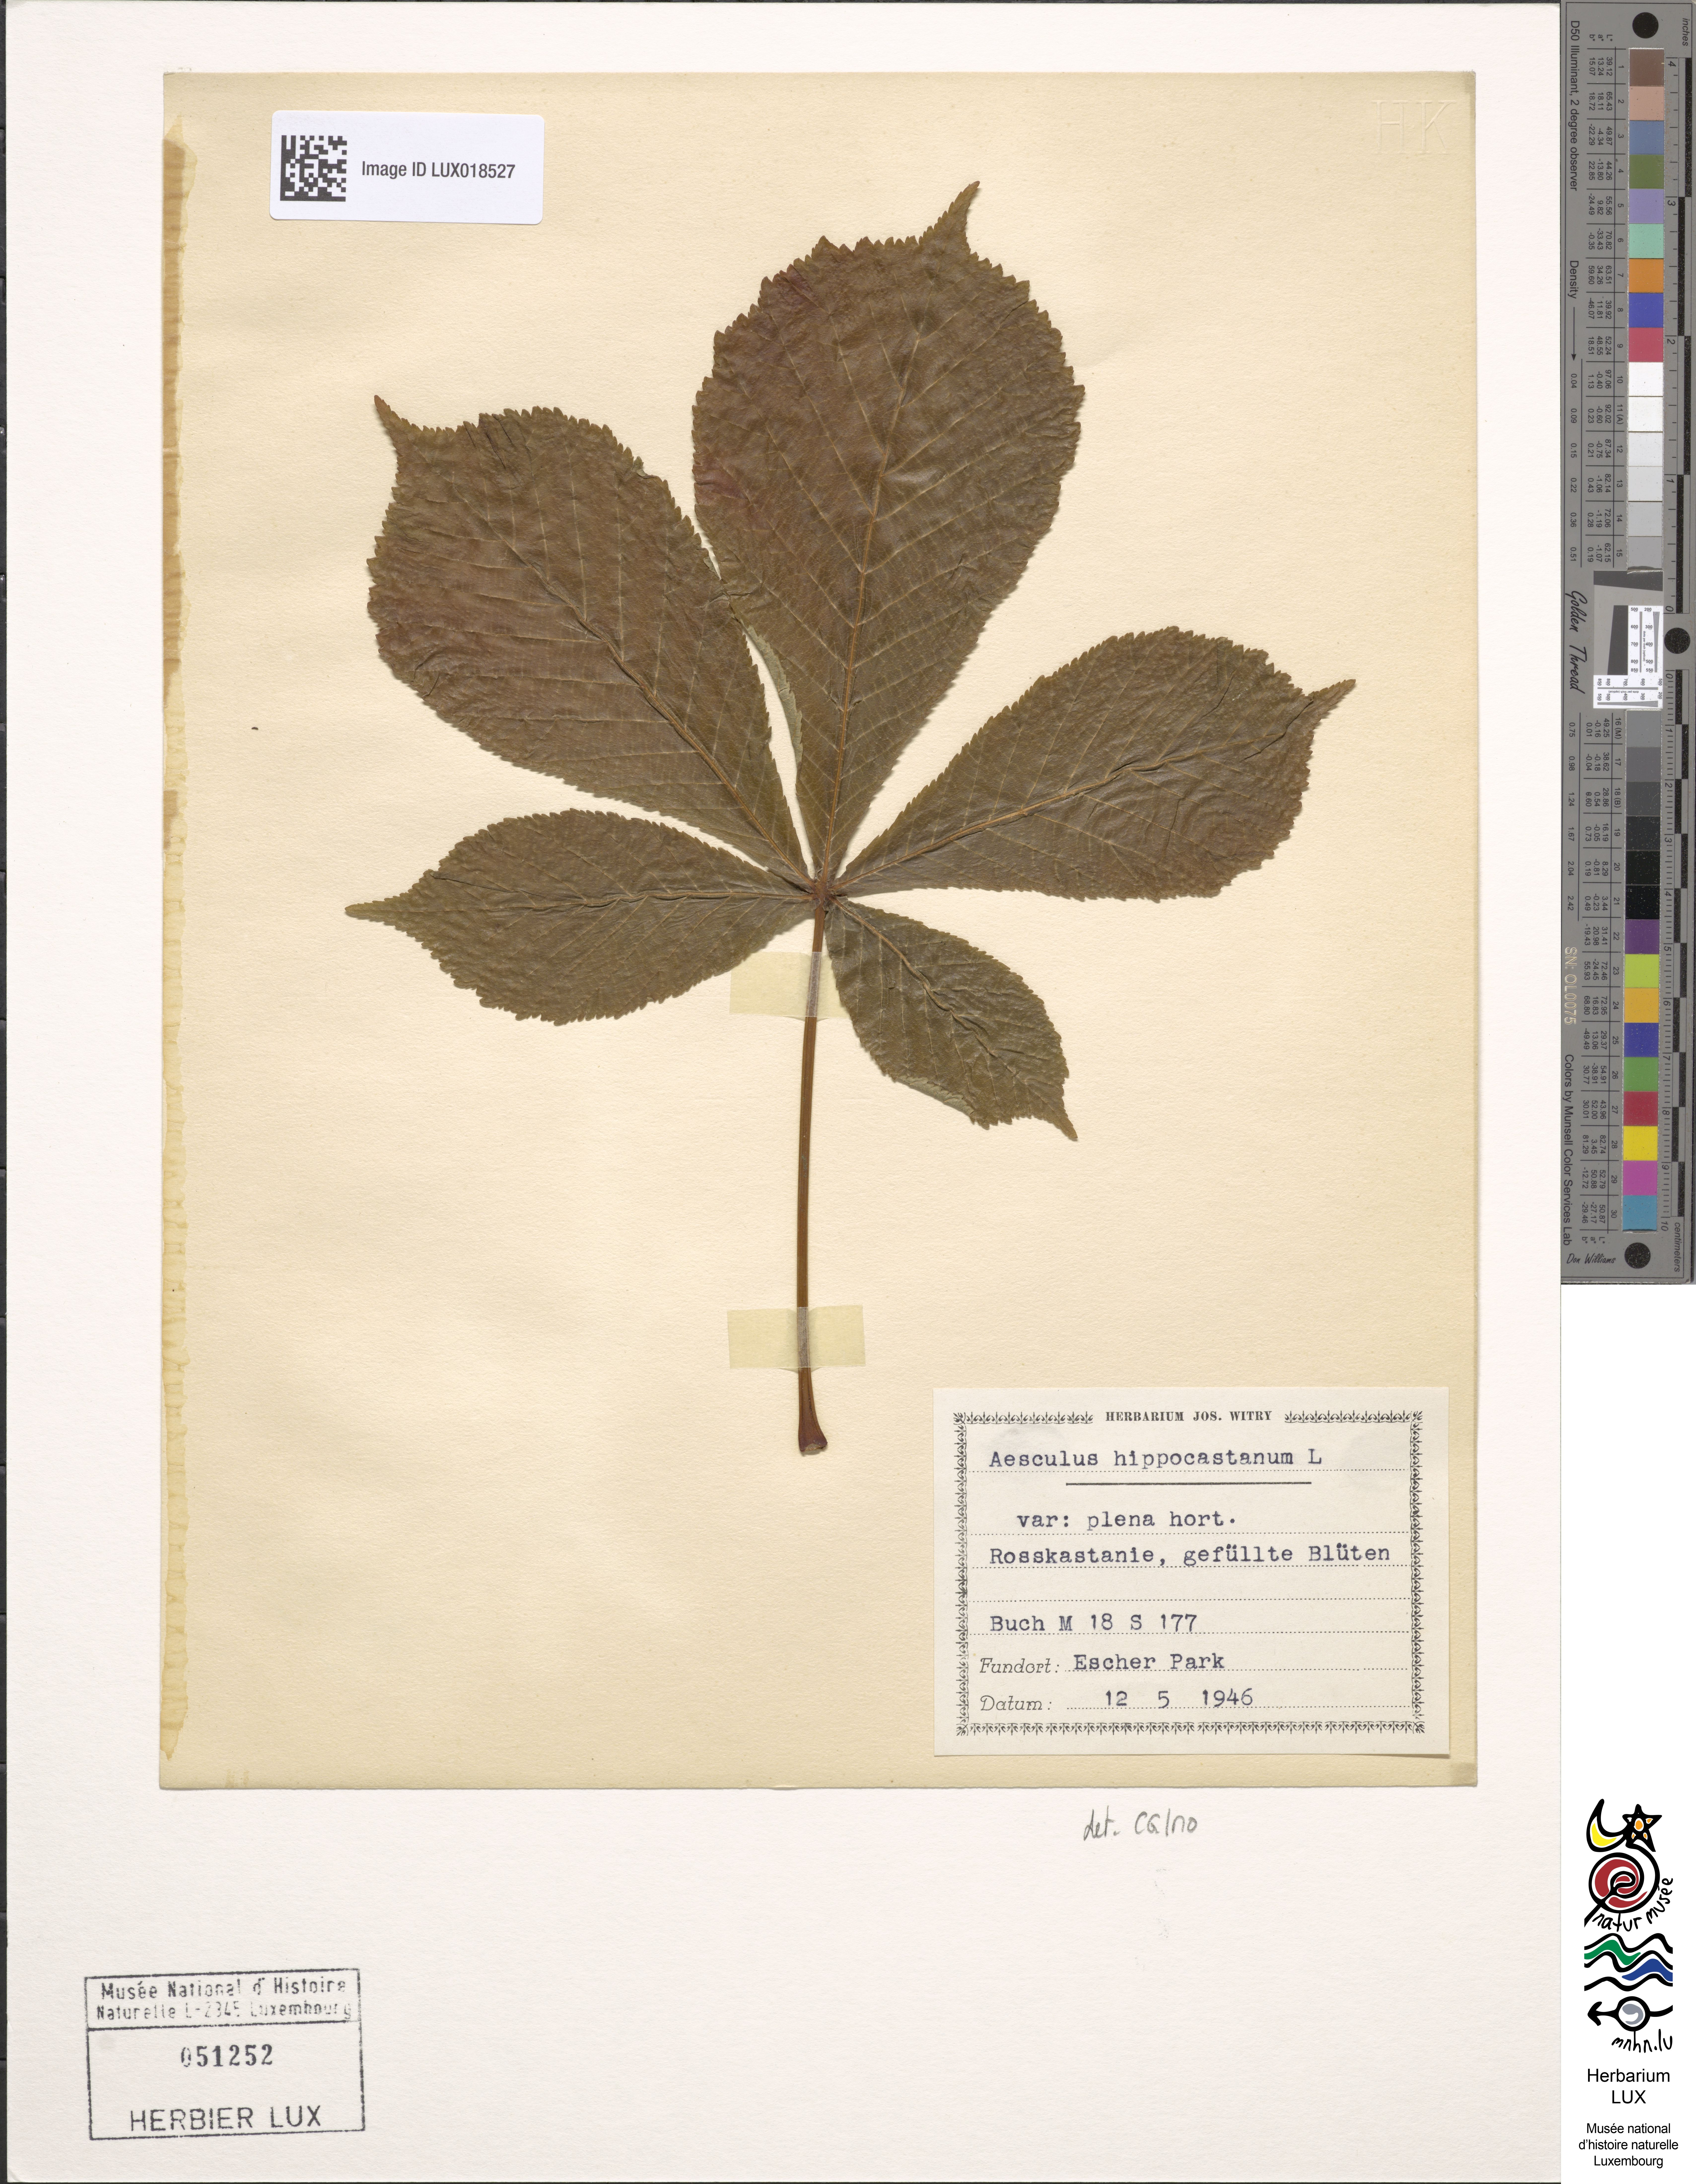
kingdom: Plantae
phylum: Tracheophyta
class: Magnoliopsida
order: Sapindales
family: Sapindaceae
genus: Aesculus
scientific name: Aesculus hippocastanum
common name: Horse-chestnut
